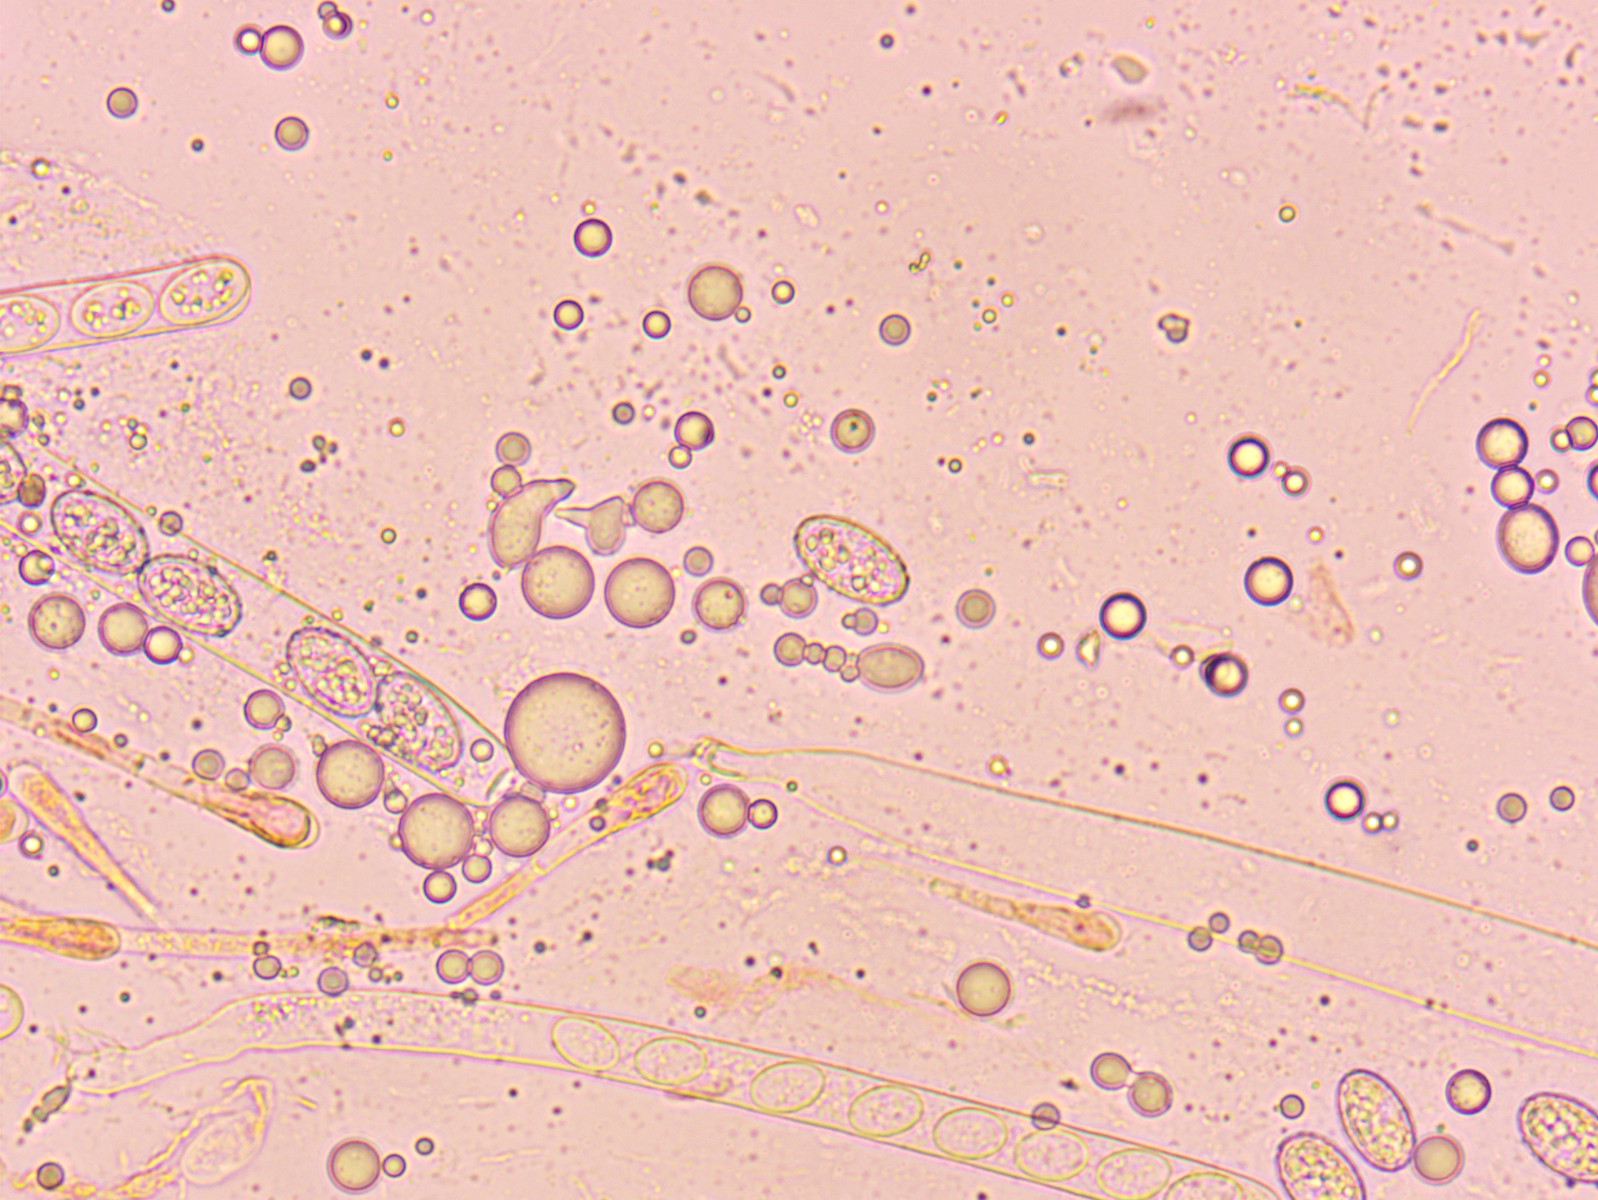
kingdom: Fungi
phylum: Ascomycota
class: Pezizomycetes
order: Pezizales
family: Pyronemataceae
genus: Scutellinia
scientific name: Scutellinia scutellata
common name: frynset skjoldbæger
